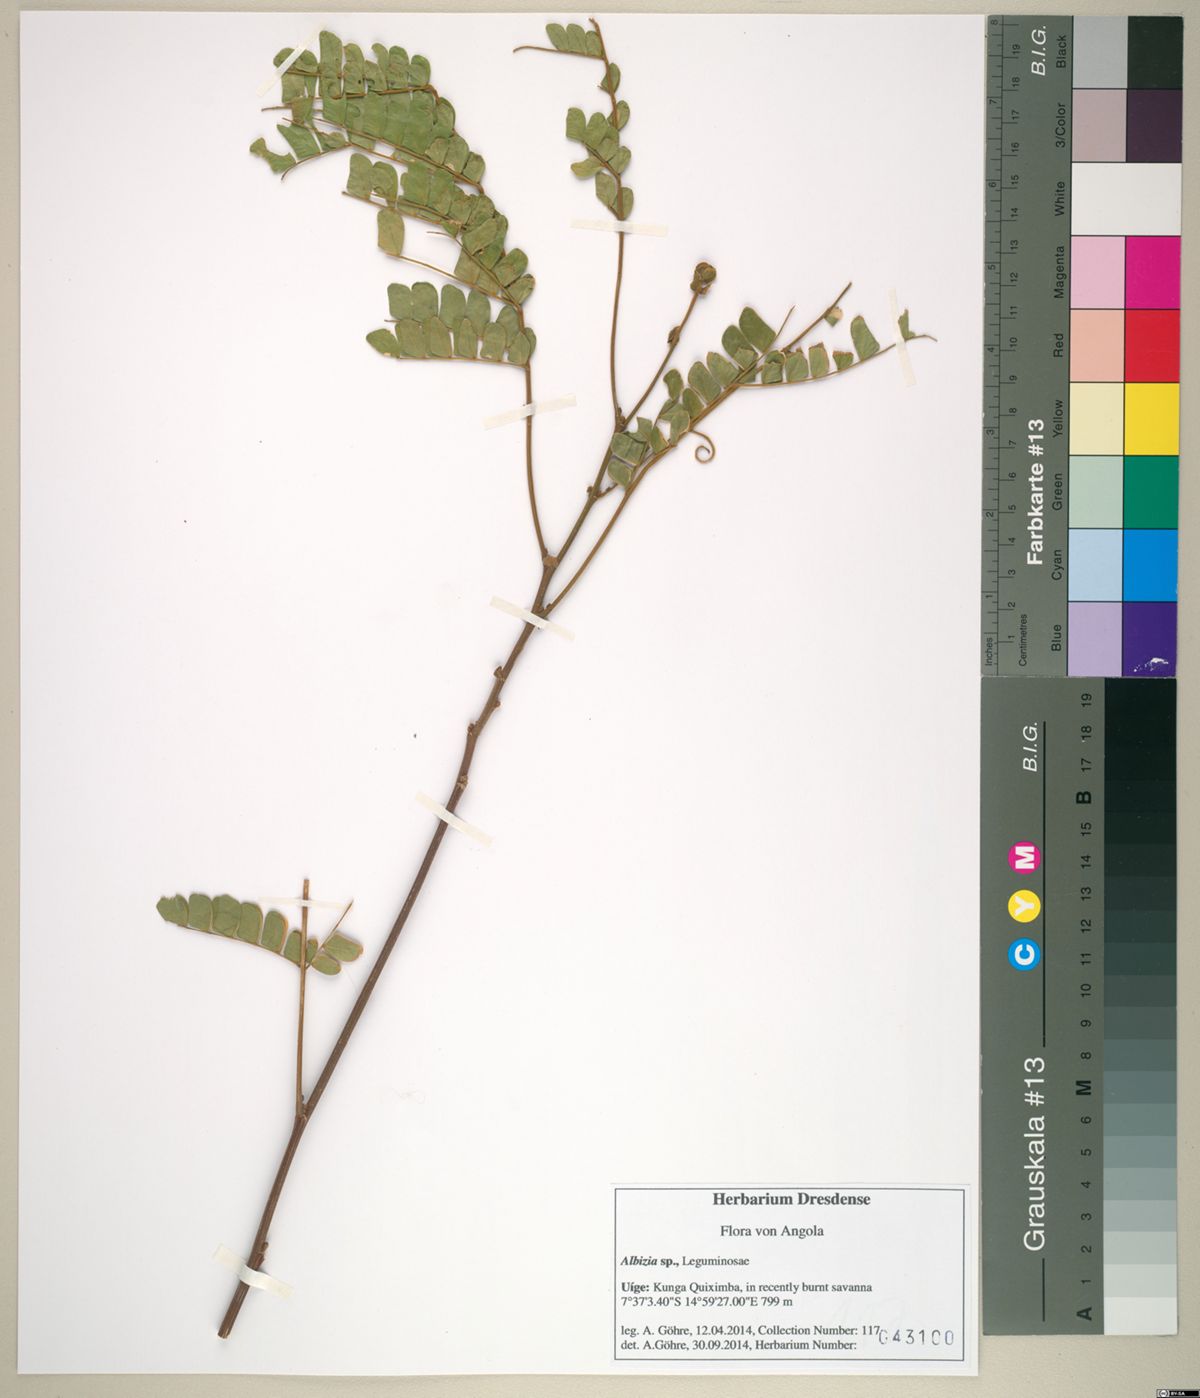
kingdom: Plantae
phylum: Tracheophyta
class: Magnoliopsida
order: Fabales
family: Fabaceae
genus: Albizia
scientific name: Albizia adianthifolia
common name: West african albizia
